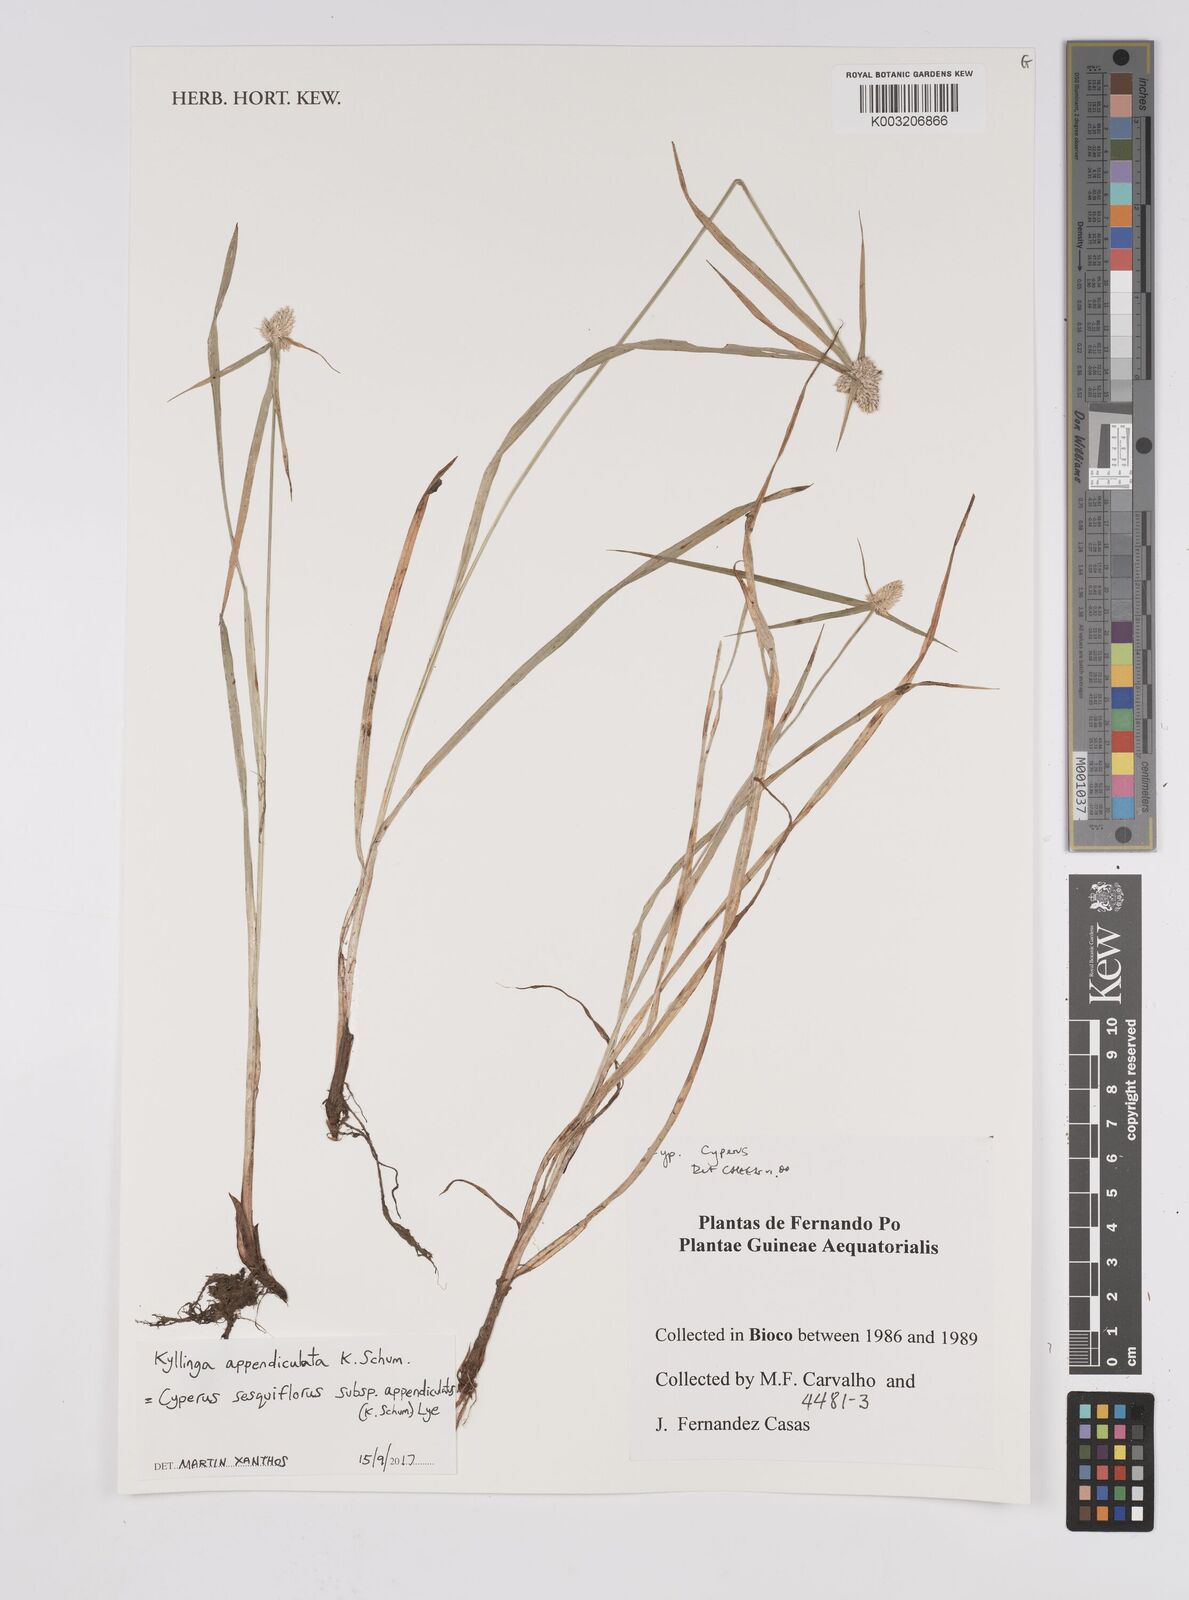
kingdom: Plantae
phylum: Tracheophyta
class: Liliopsida
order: Poales
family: Cyperaceae
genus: Cyperus
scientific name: Cyperus odoratus
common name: Fragrant flatsedge
